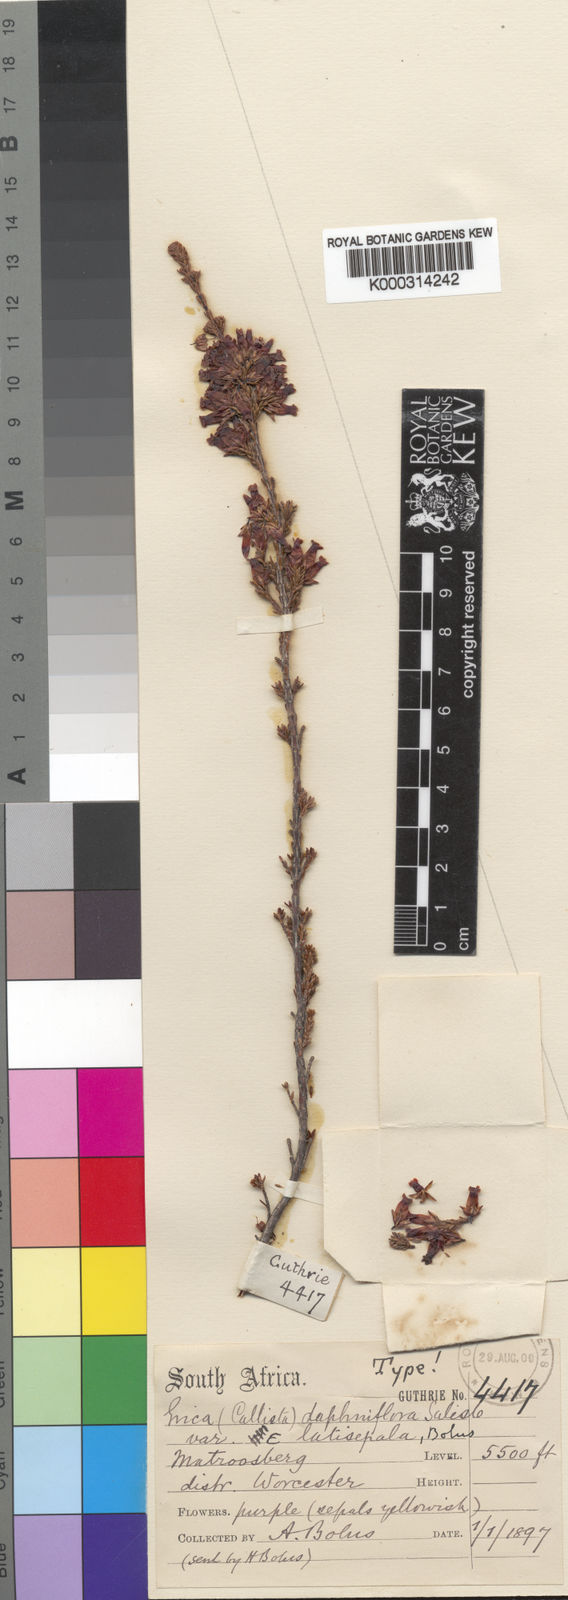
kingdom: Plantae
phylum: Tracheophyta
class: Magnoliopsida
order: Ericales
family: Ericaceae
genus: Erica
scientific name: Erica daphniflora
